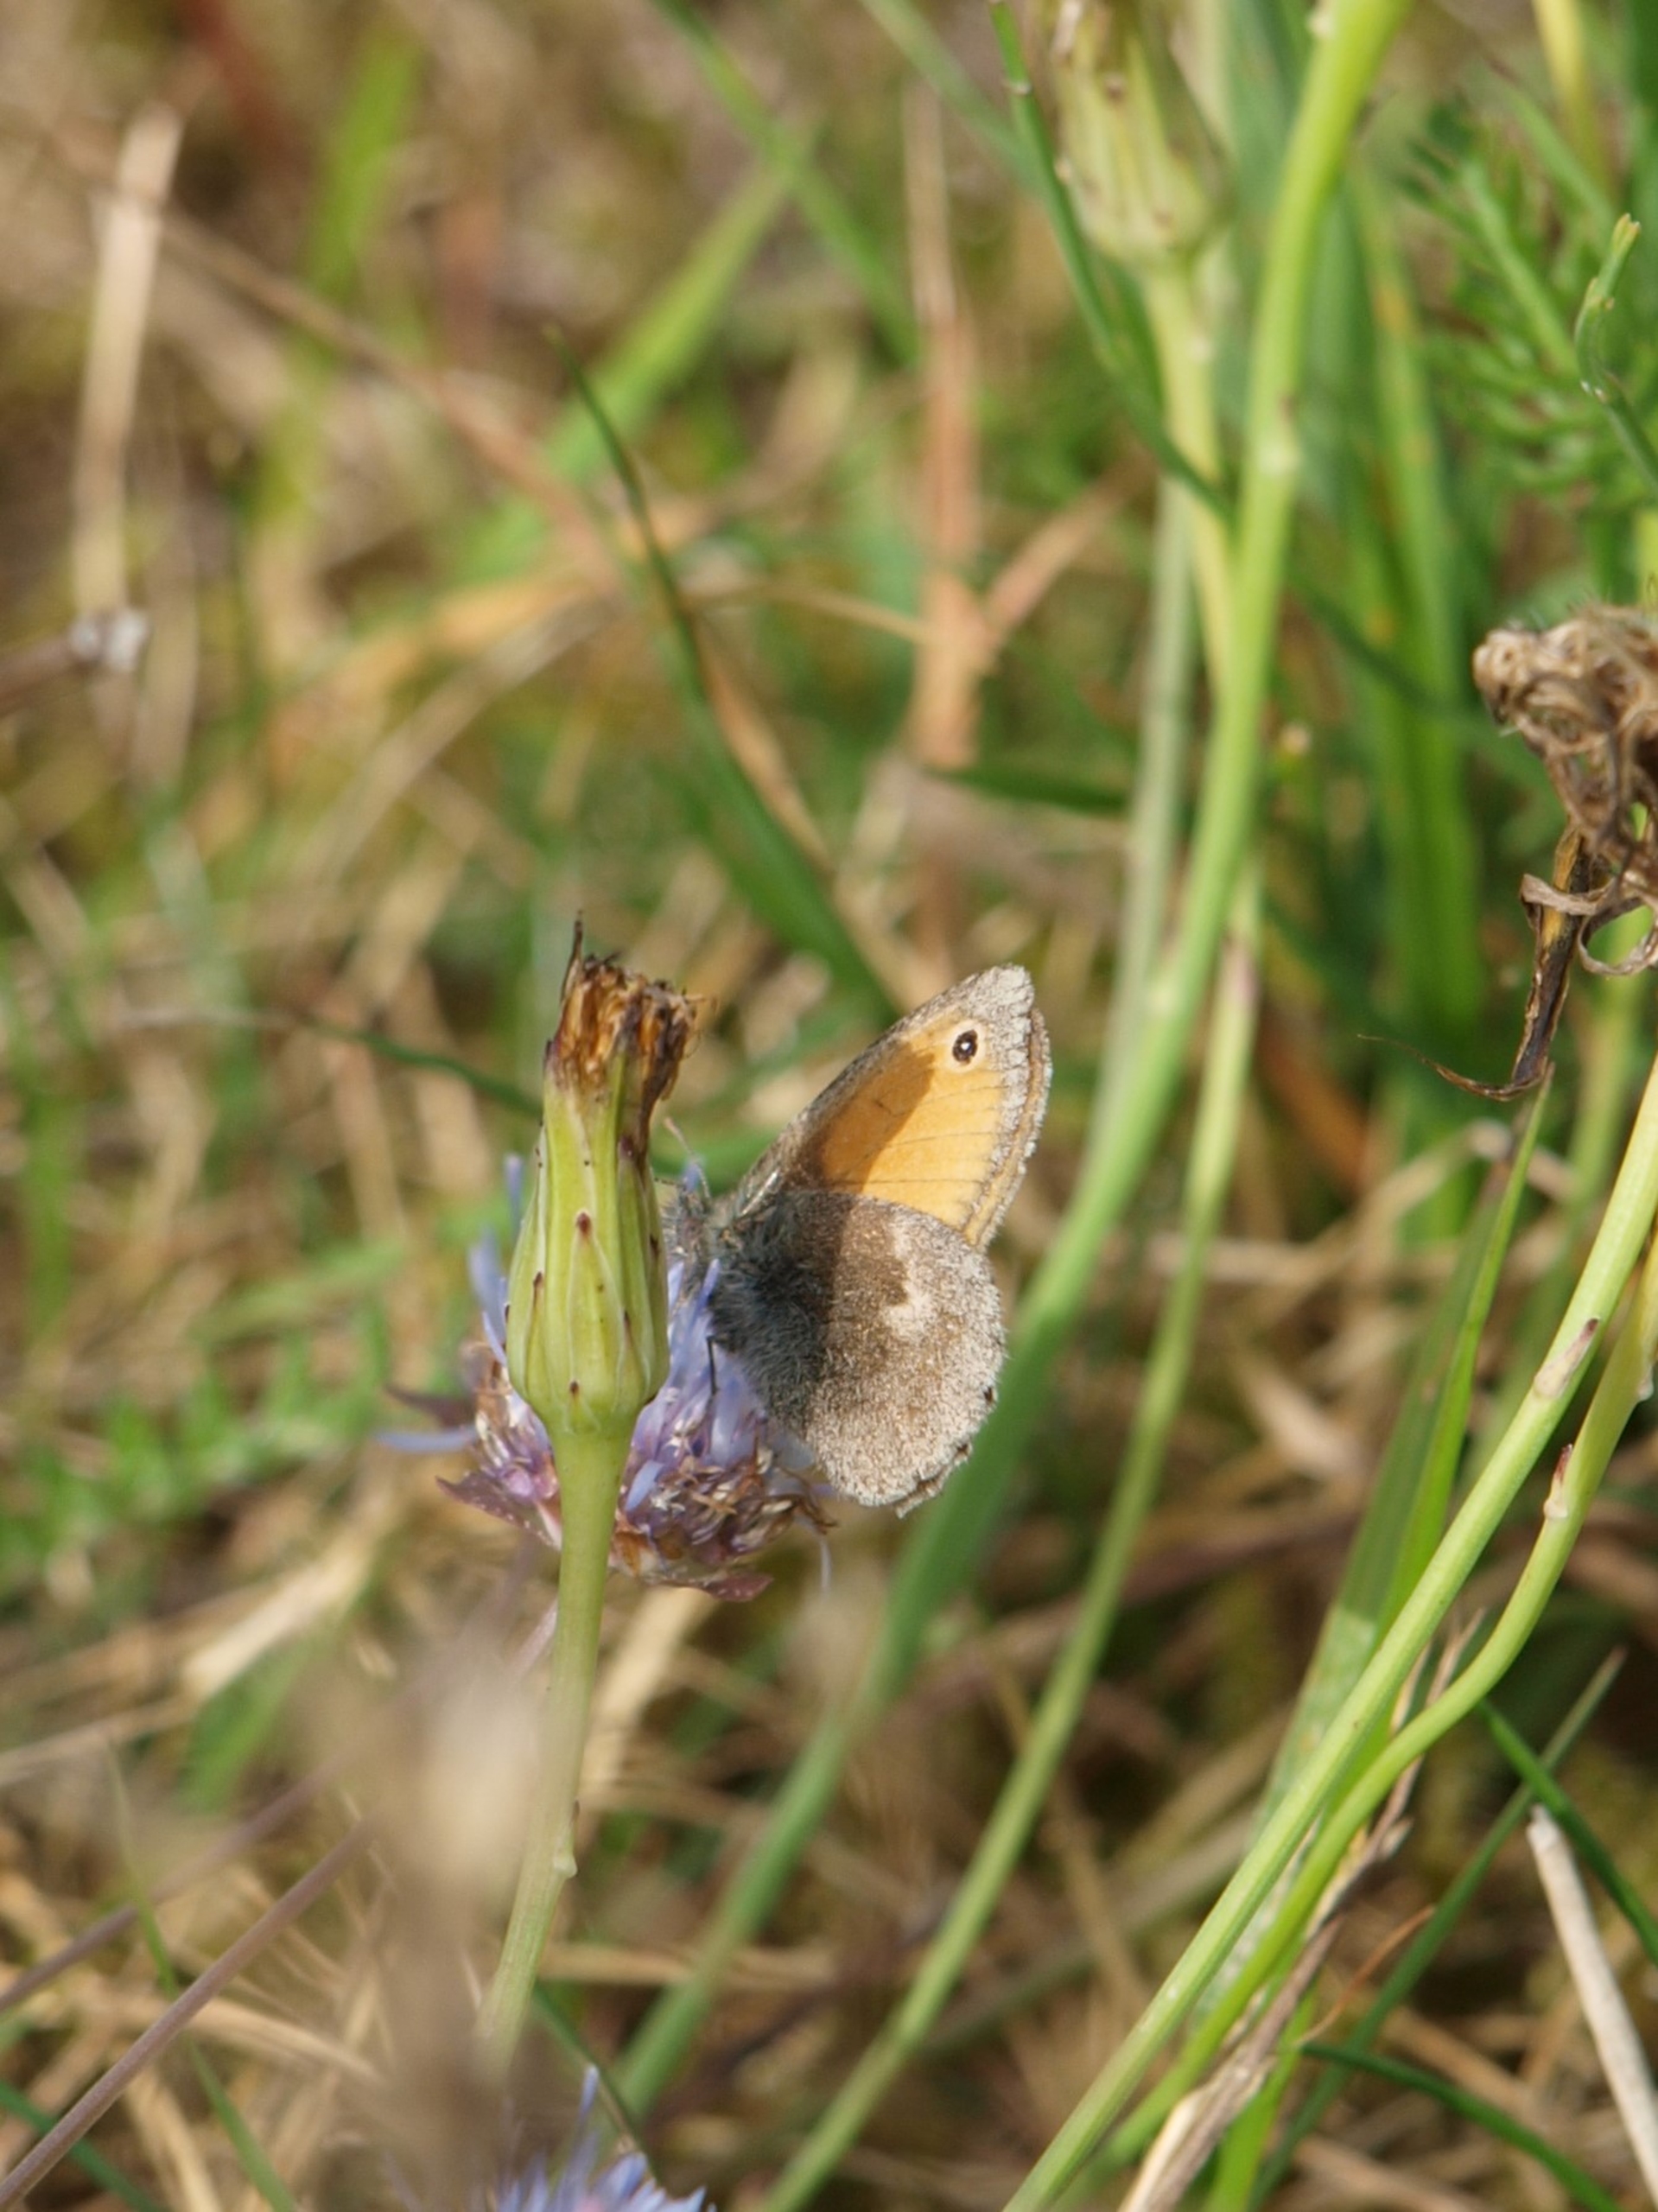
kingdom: Animalia
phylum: Arthropoda
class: Insecta
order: Lepidoptera
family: Nymphalidae
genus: Coenonympha
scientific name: Coenonympha pamphilus
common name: Okkergul randøje
